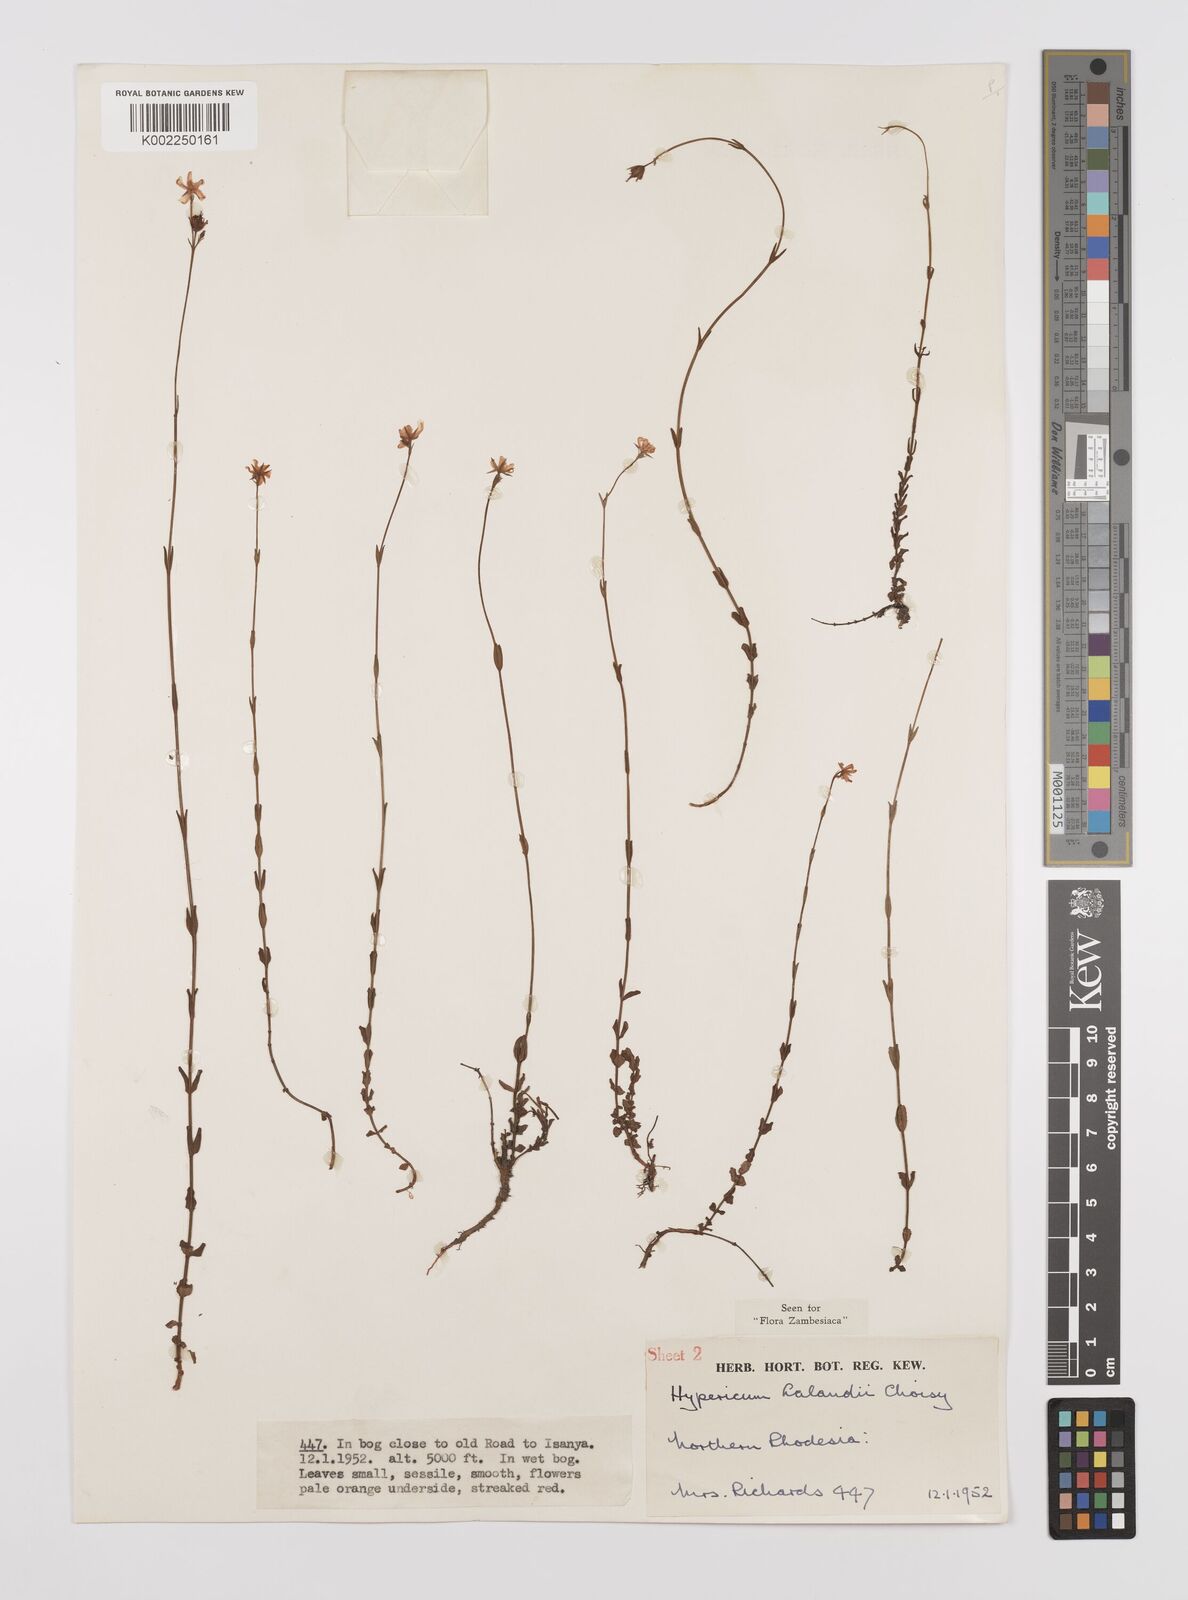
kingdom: Plantae
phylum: Tracheophyta
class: Magnoliopsida
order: Malpighiales
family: Hypericaceae
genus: Hypericum
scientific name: Hypericum lalandii
